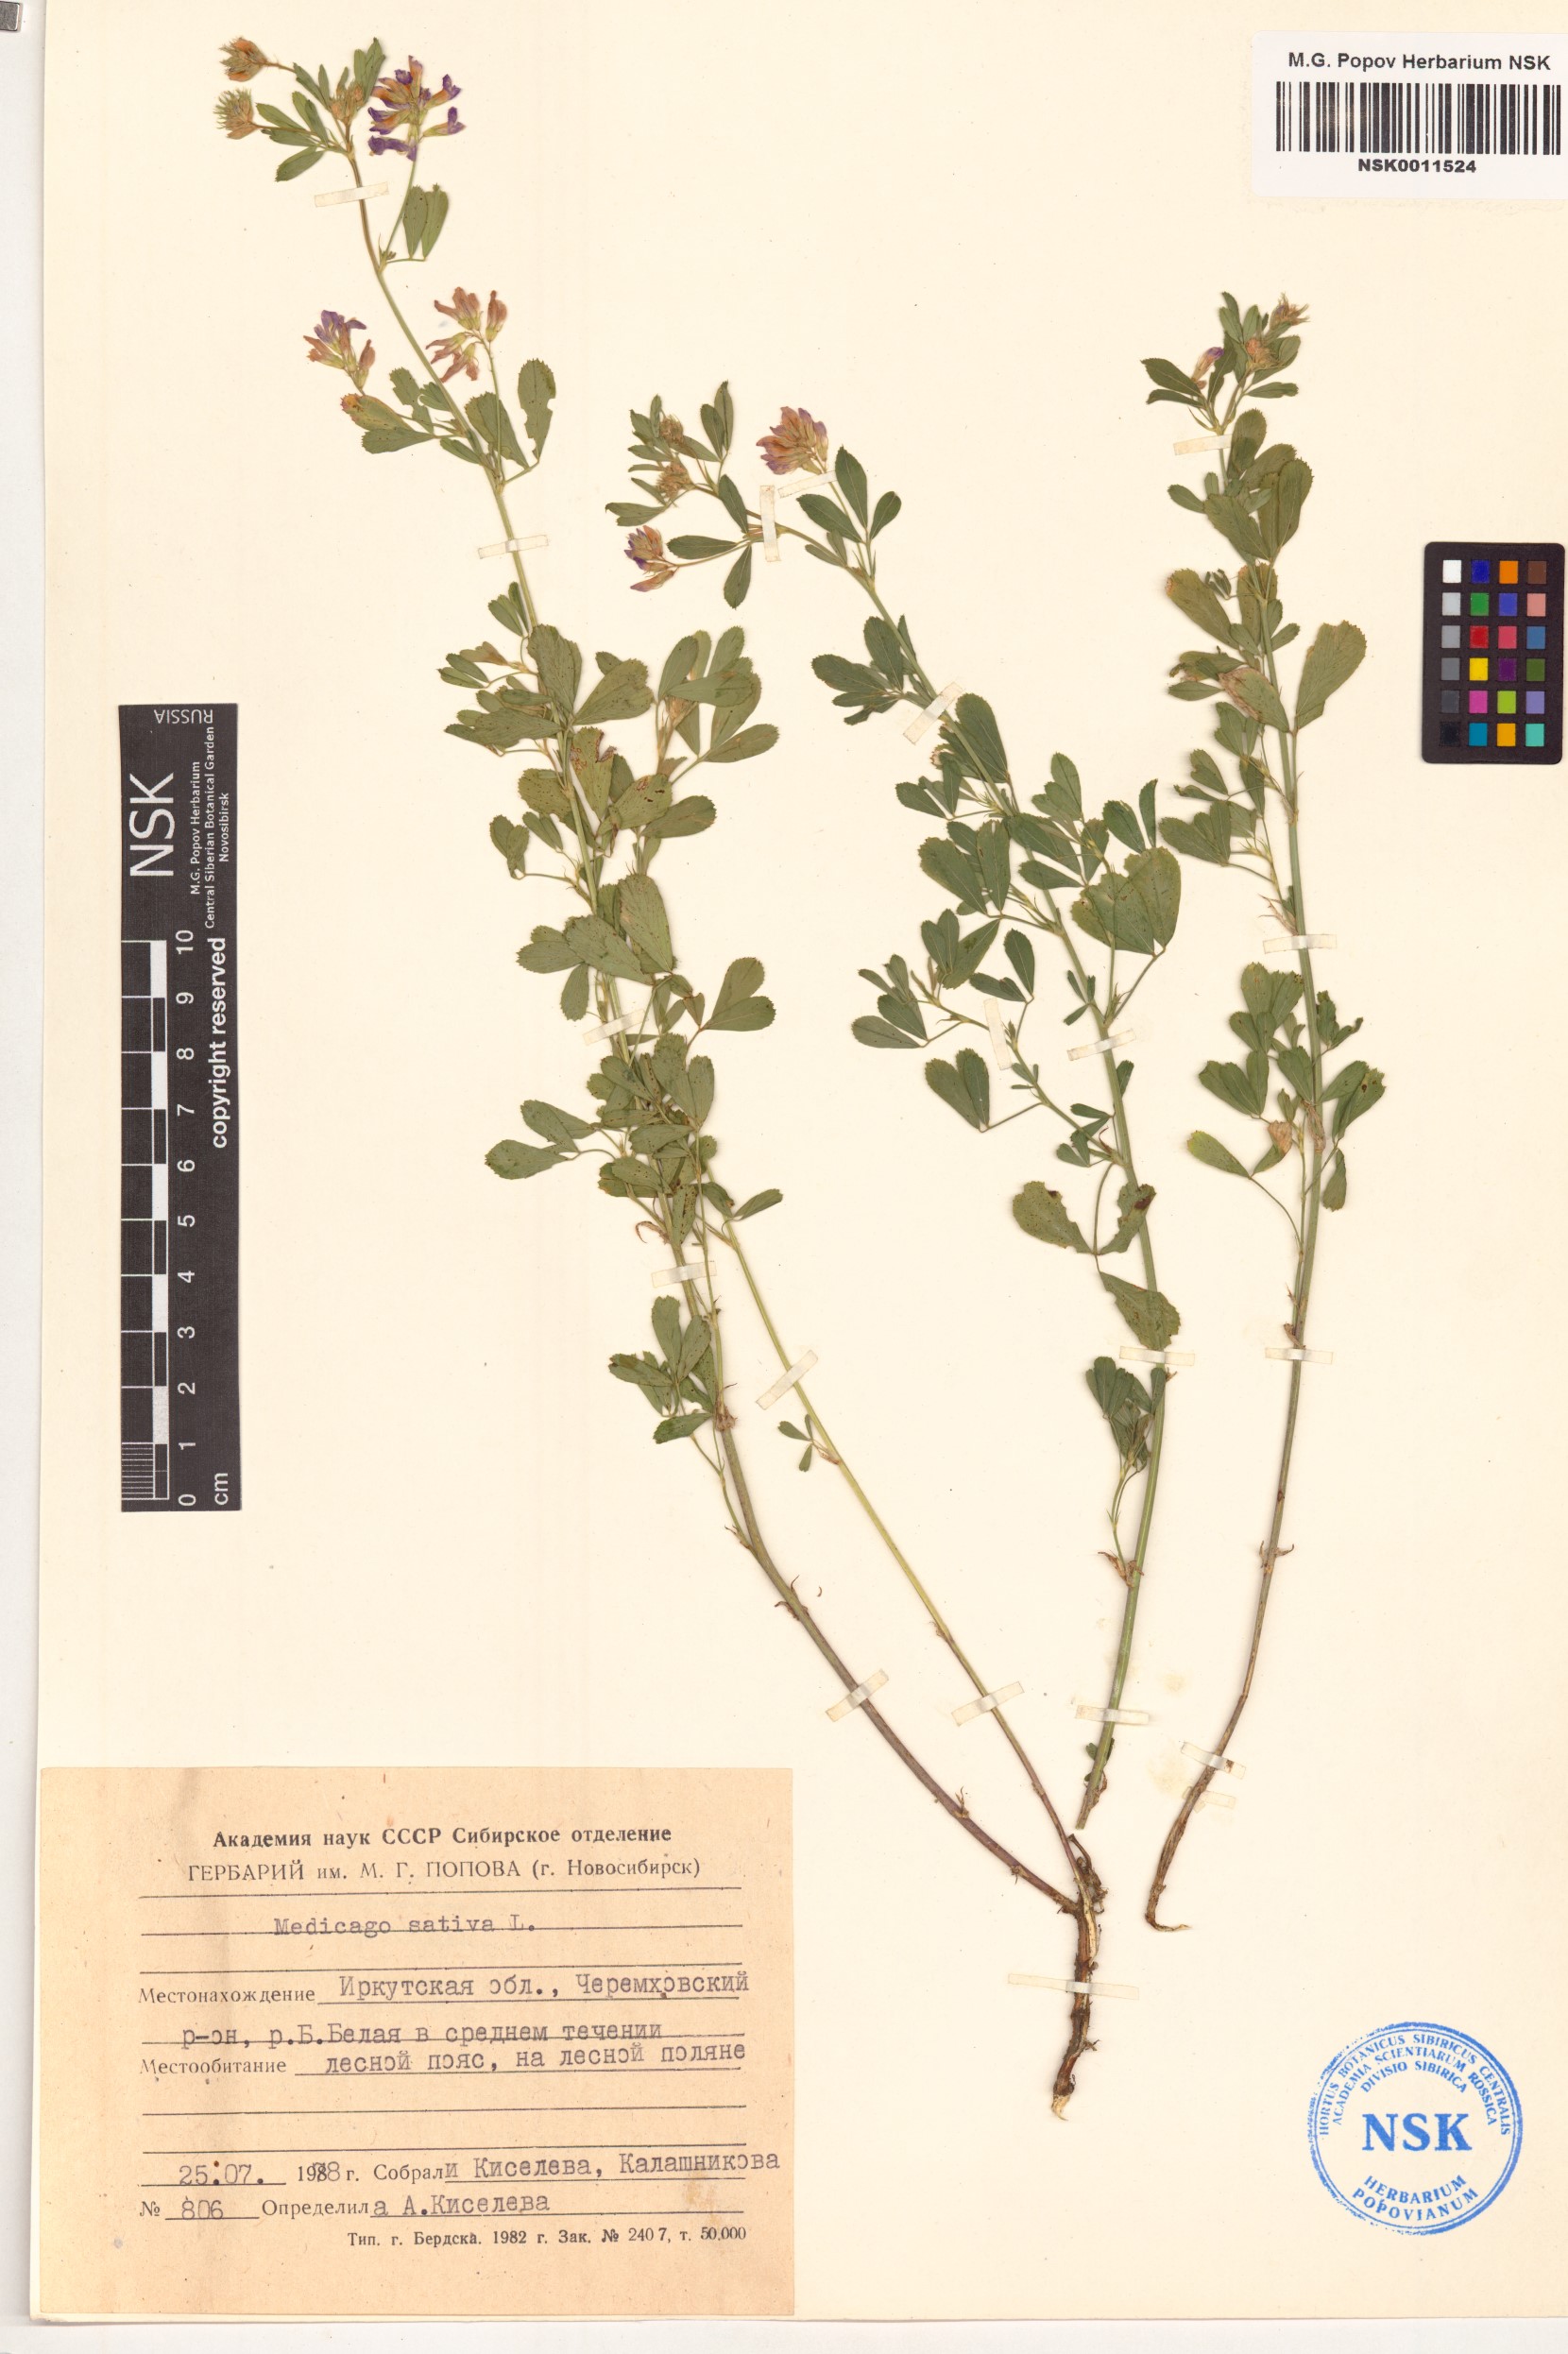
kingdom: Plantae
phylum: Tracheophyta
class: Magnoliopsida
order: Fabales
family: Fabaceae
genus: Medicago
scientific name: Medicago sativa
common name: Alfalfa
